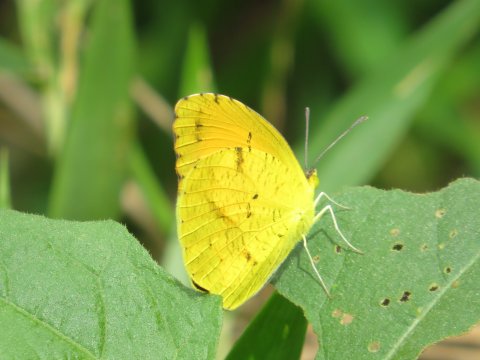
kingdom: Animalia
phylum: Arthropoda
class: Insecta
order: Lepidoptera
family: Pieridae
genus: Abaeis
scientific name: Abaeis nicippe
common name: Sleepy Orange
